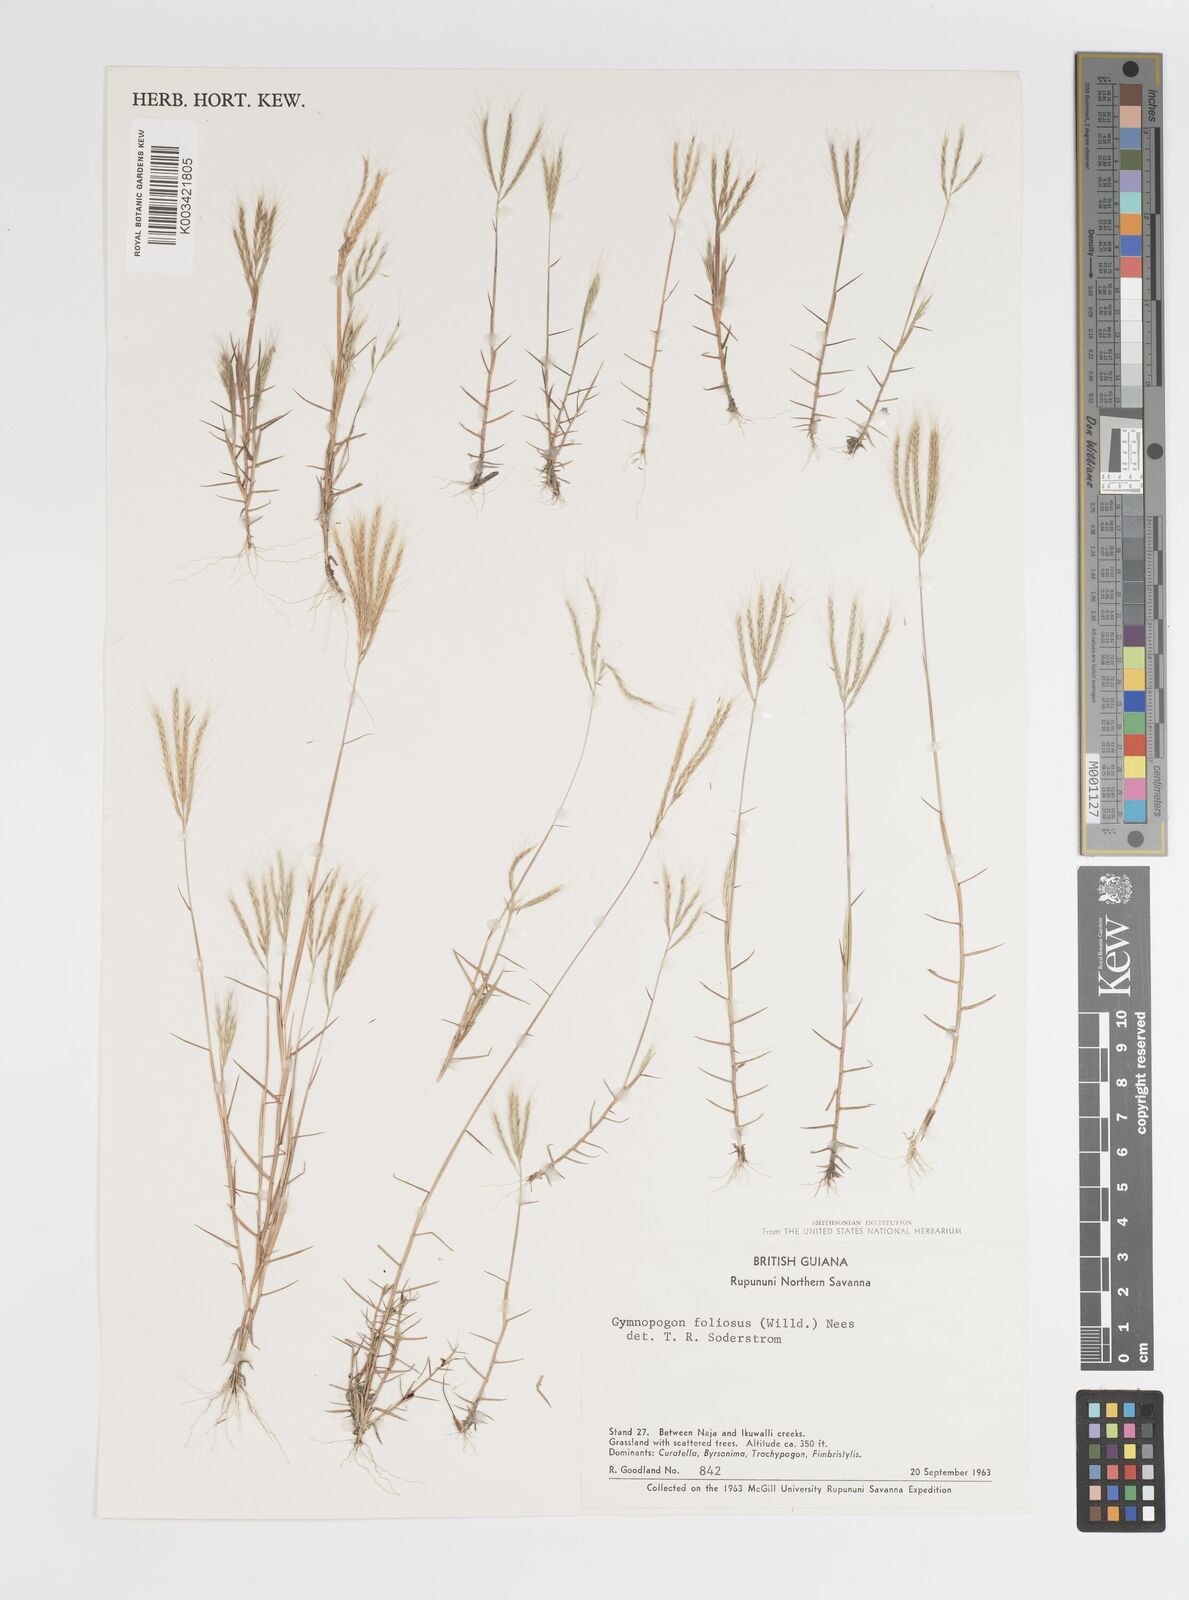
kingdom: Plantae
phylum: Tracheophyta
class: Liliopsida
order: Poales
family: Poaceae
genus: Gymnopogon
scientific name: Gymnopogon foliosus
